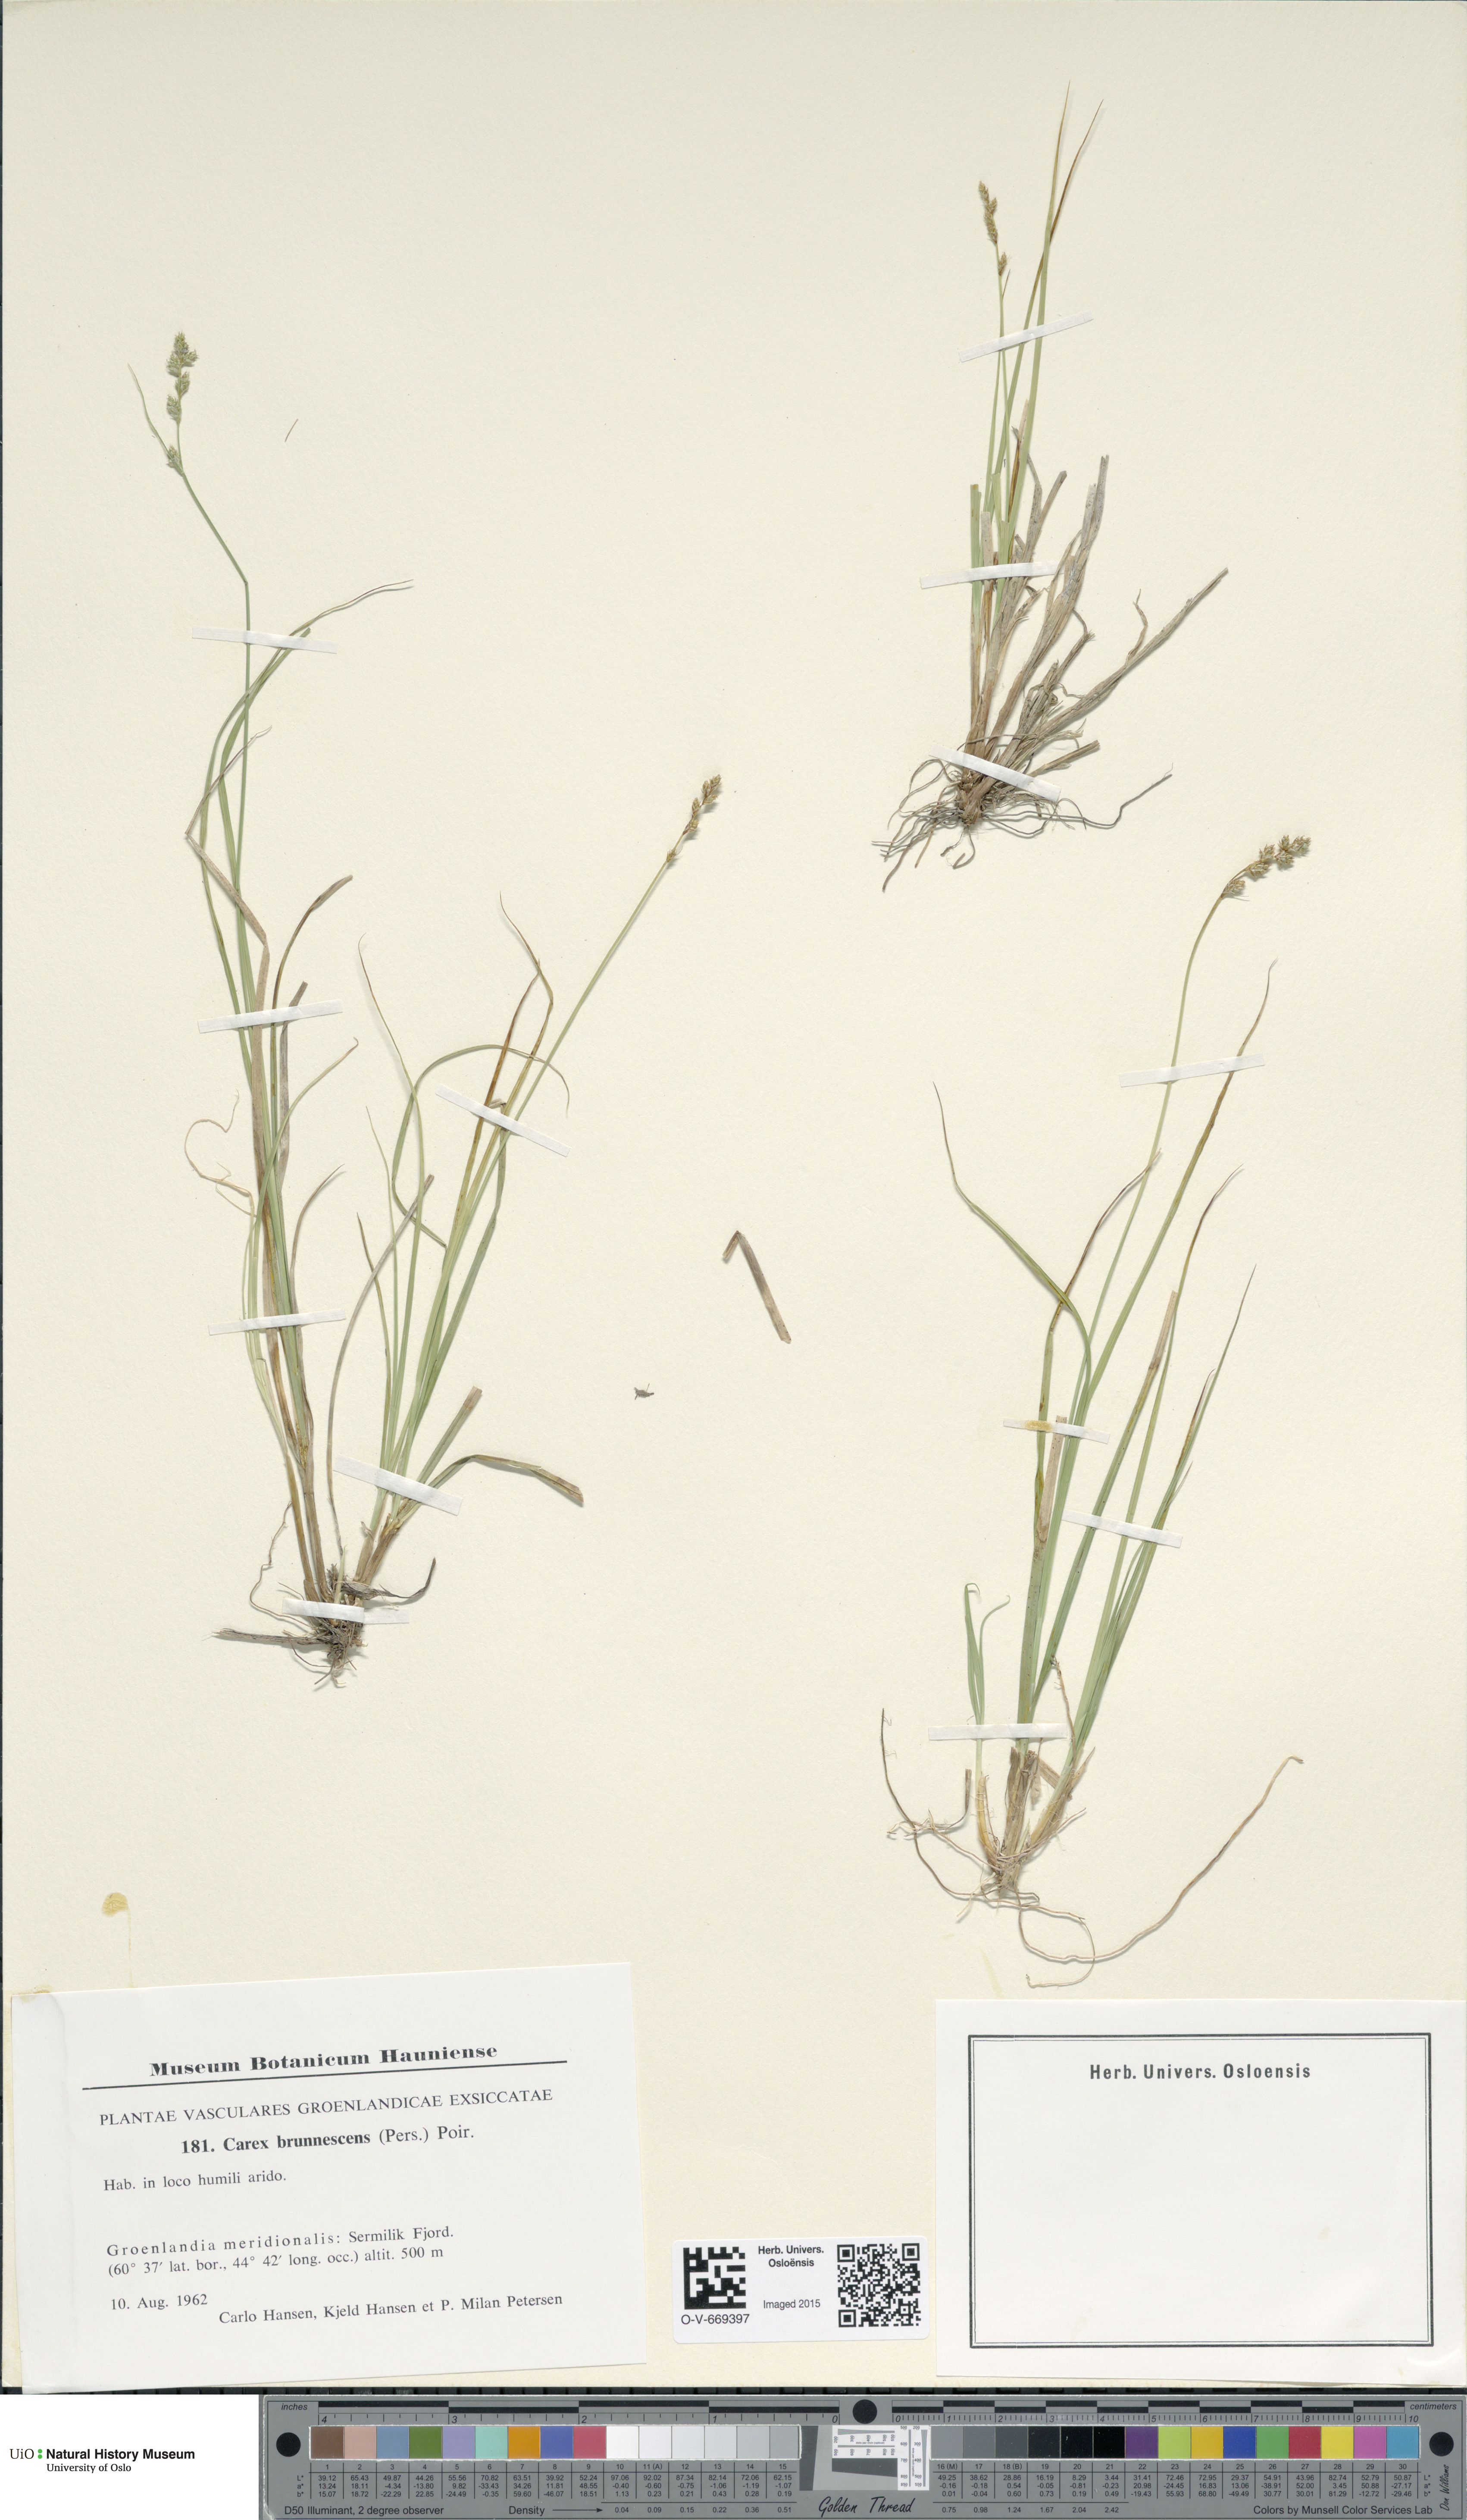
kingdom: Plantae
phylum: Tracheophyta
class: Liliopsida
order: Poales
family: Cyperaceae
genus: Carex
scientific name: Carex brunnescens
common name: Brown sedge
